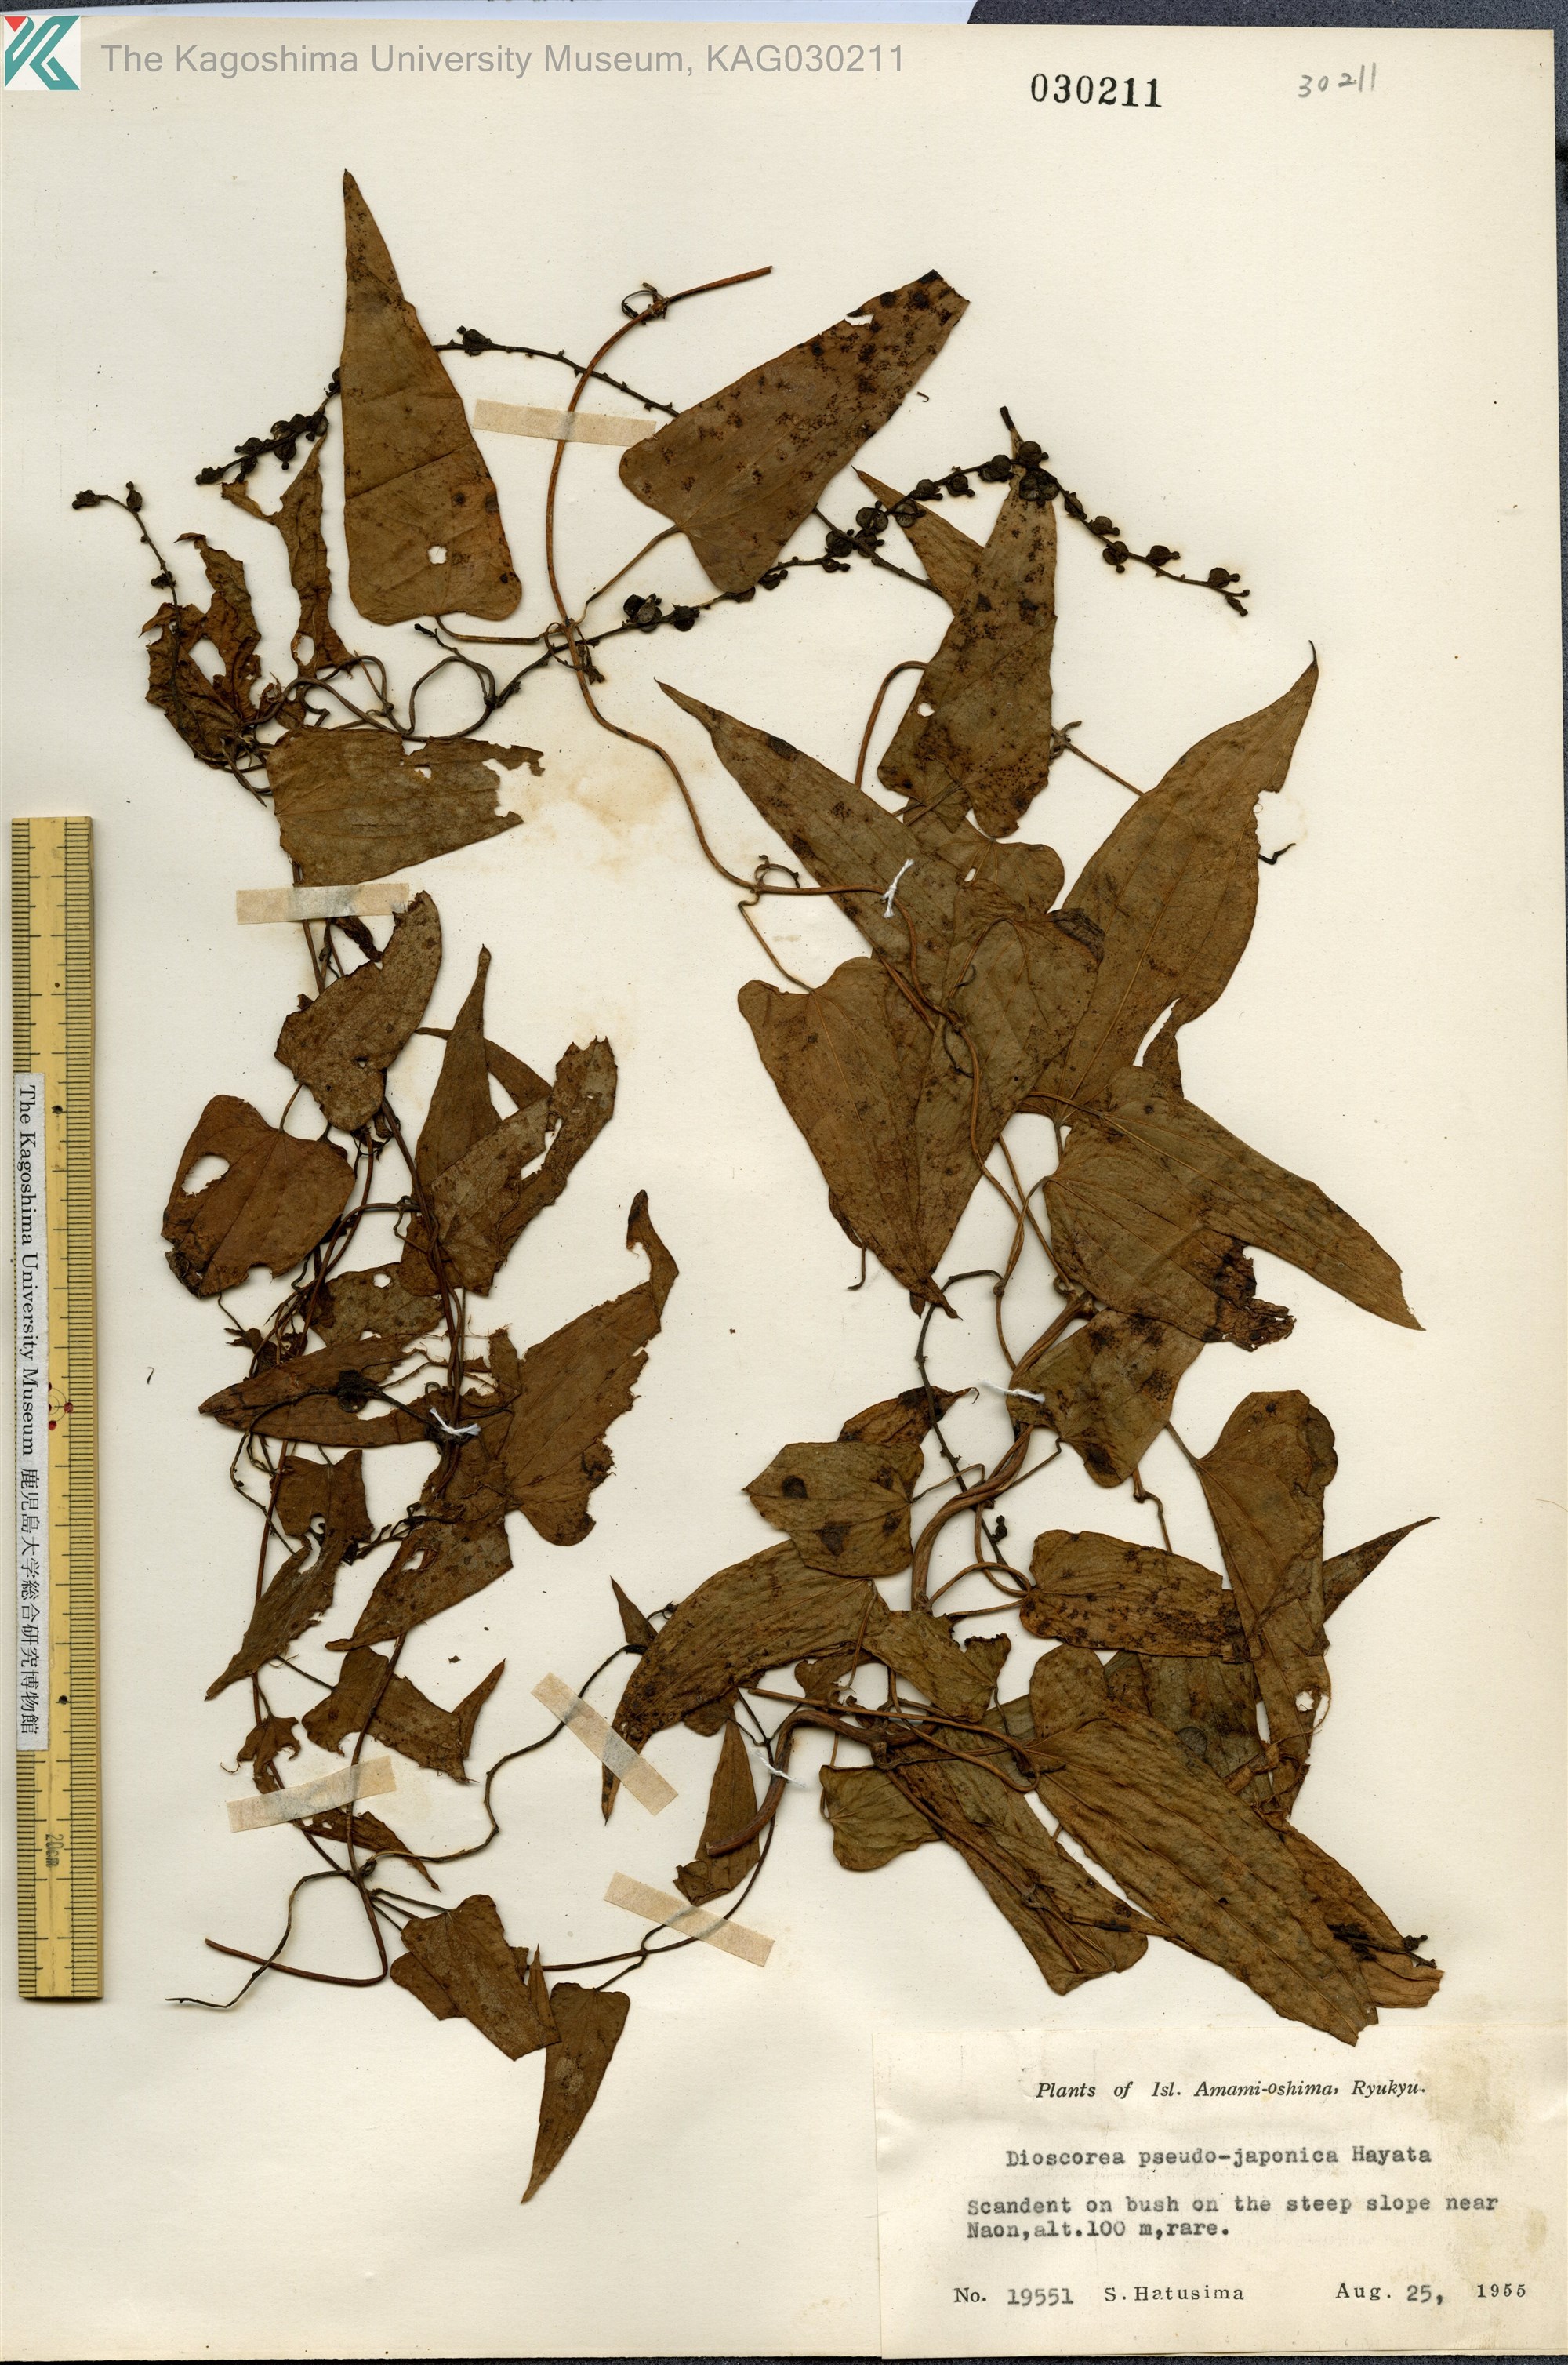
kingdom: Plantae
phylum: Tracheophyta
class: Liliopsida
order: Dioscoreales
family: Dioscoreaceae
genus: Dioscorea
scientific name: Dioscorea pseudojaponica
